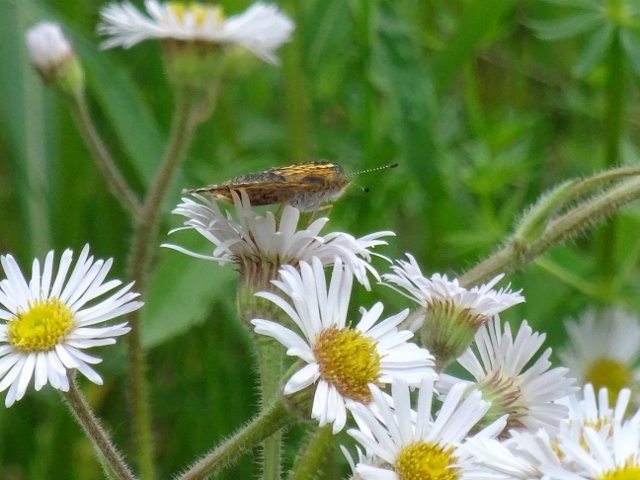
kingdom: Animalia
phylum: Arthropoda
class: Insecta
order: Lepidoptera
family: Nymphalidae
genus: Phyciodes
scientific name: Phyciodes tharos
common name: Pearl Crescent
